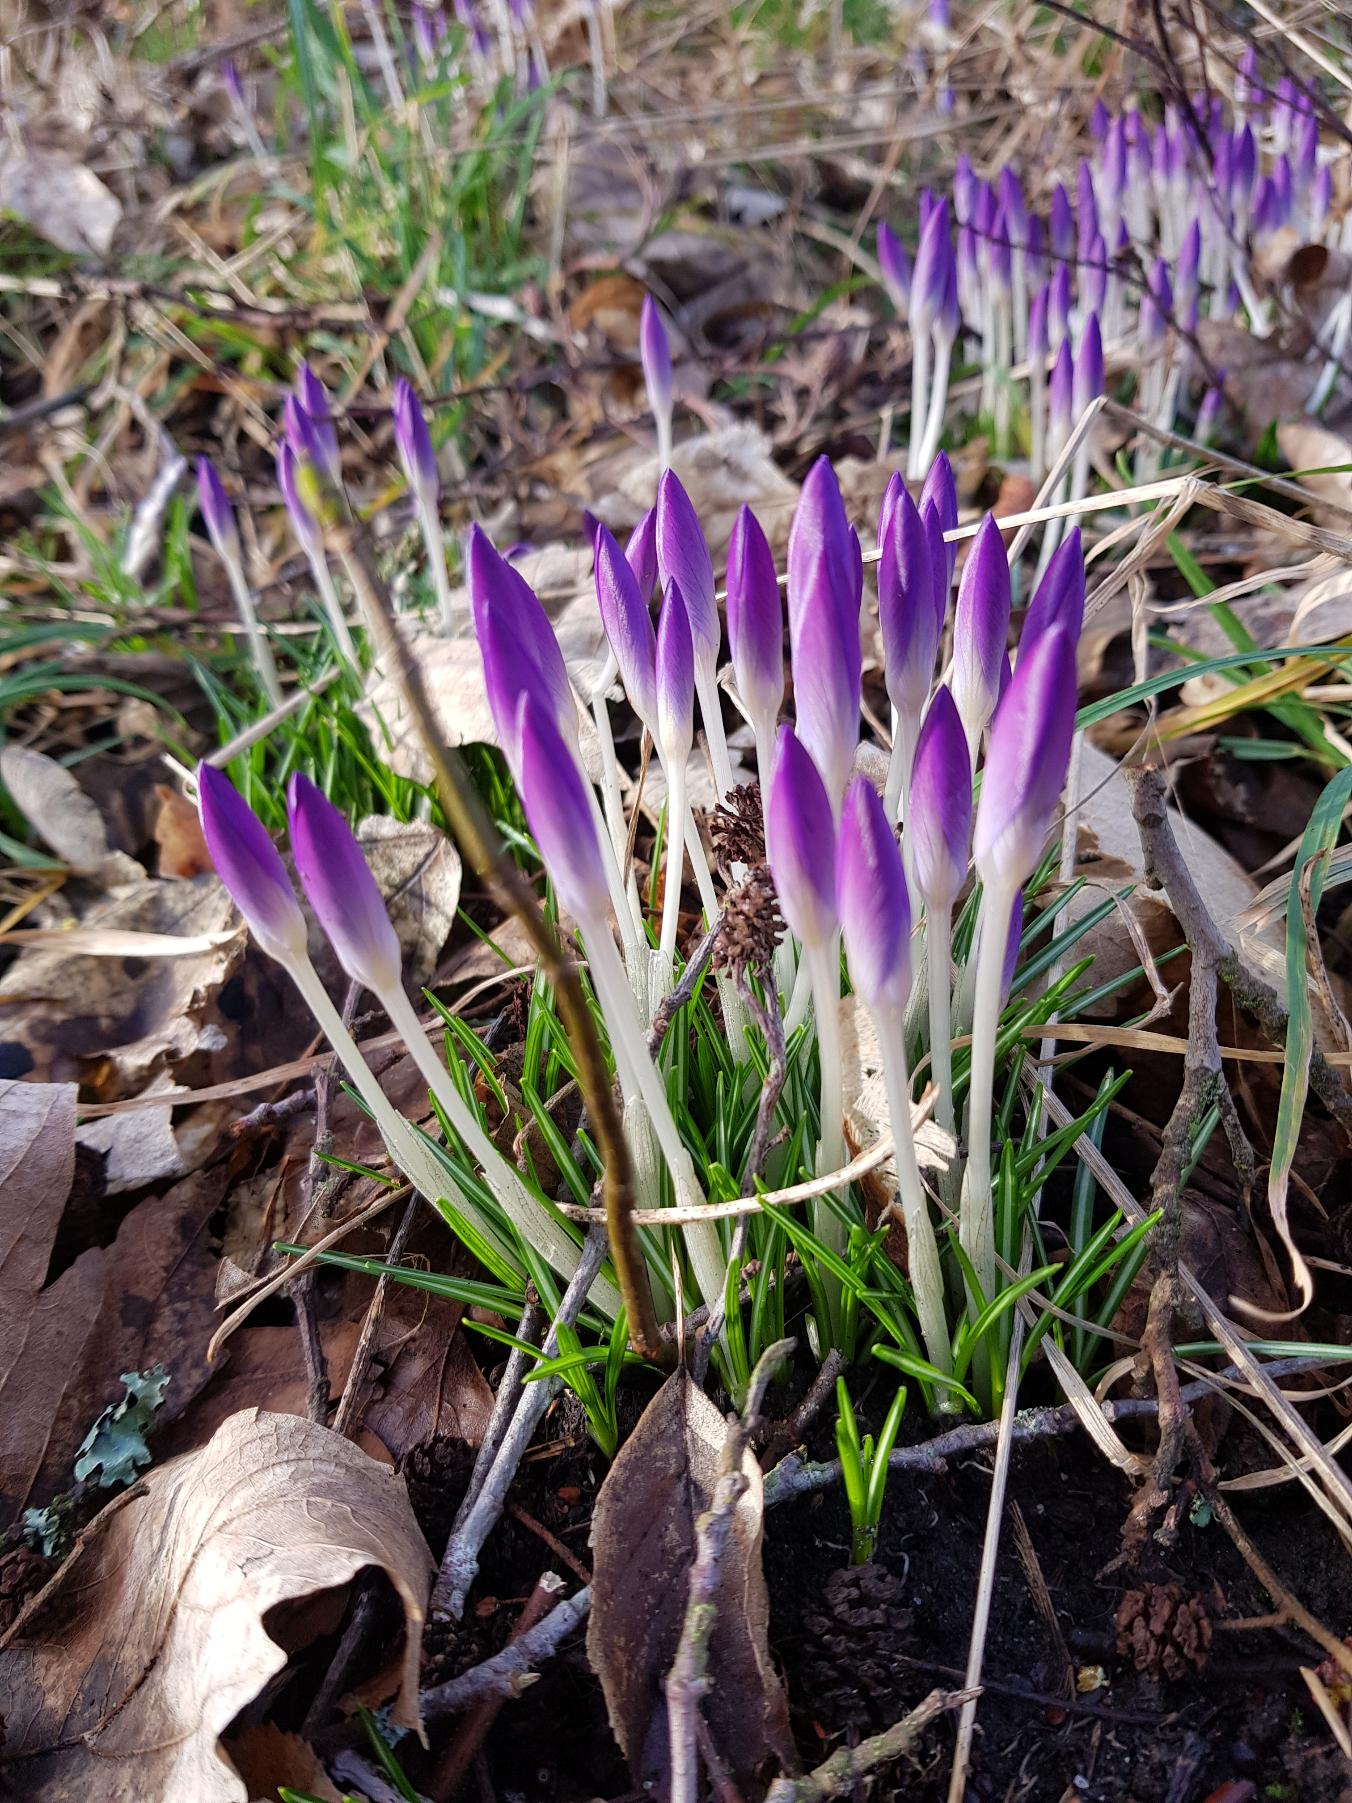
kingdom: Plantae
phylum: Tracheophyta
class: Liliopsida
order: Asparagales
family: Iridaceae
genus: Crocus
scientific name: Crocus tommasinianus
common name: Sne-krokus
